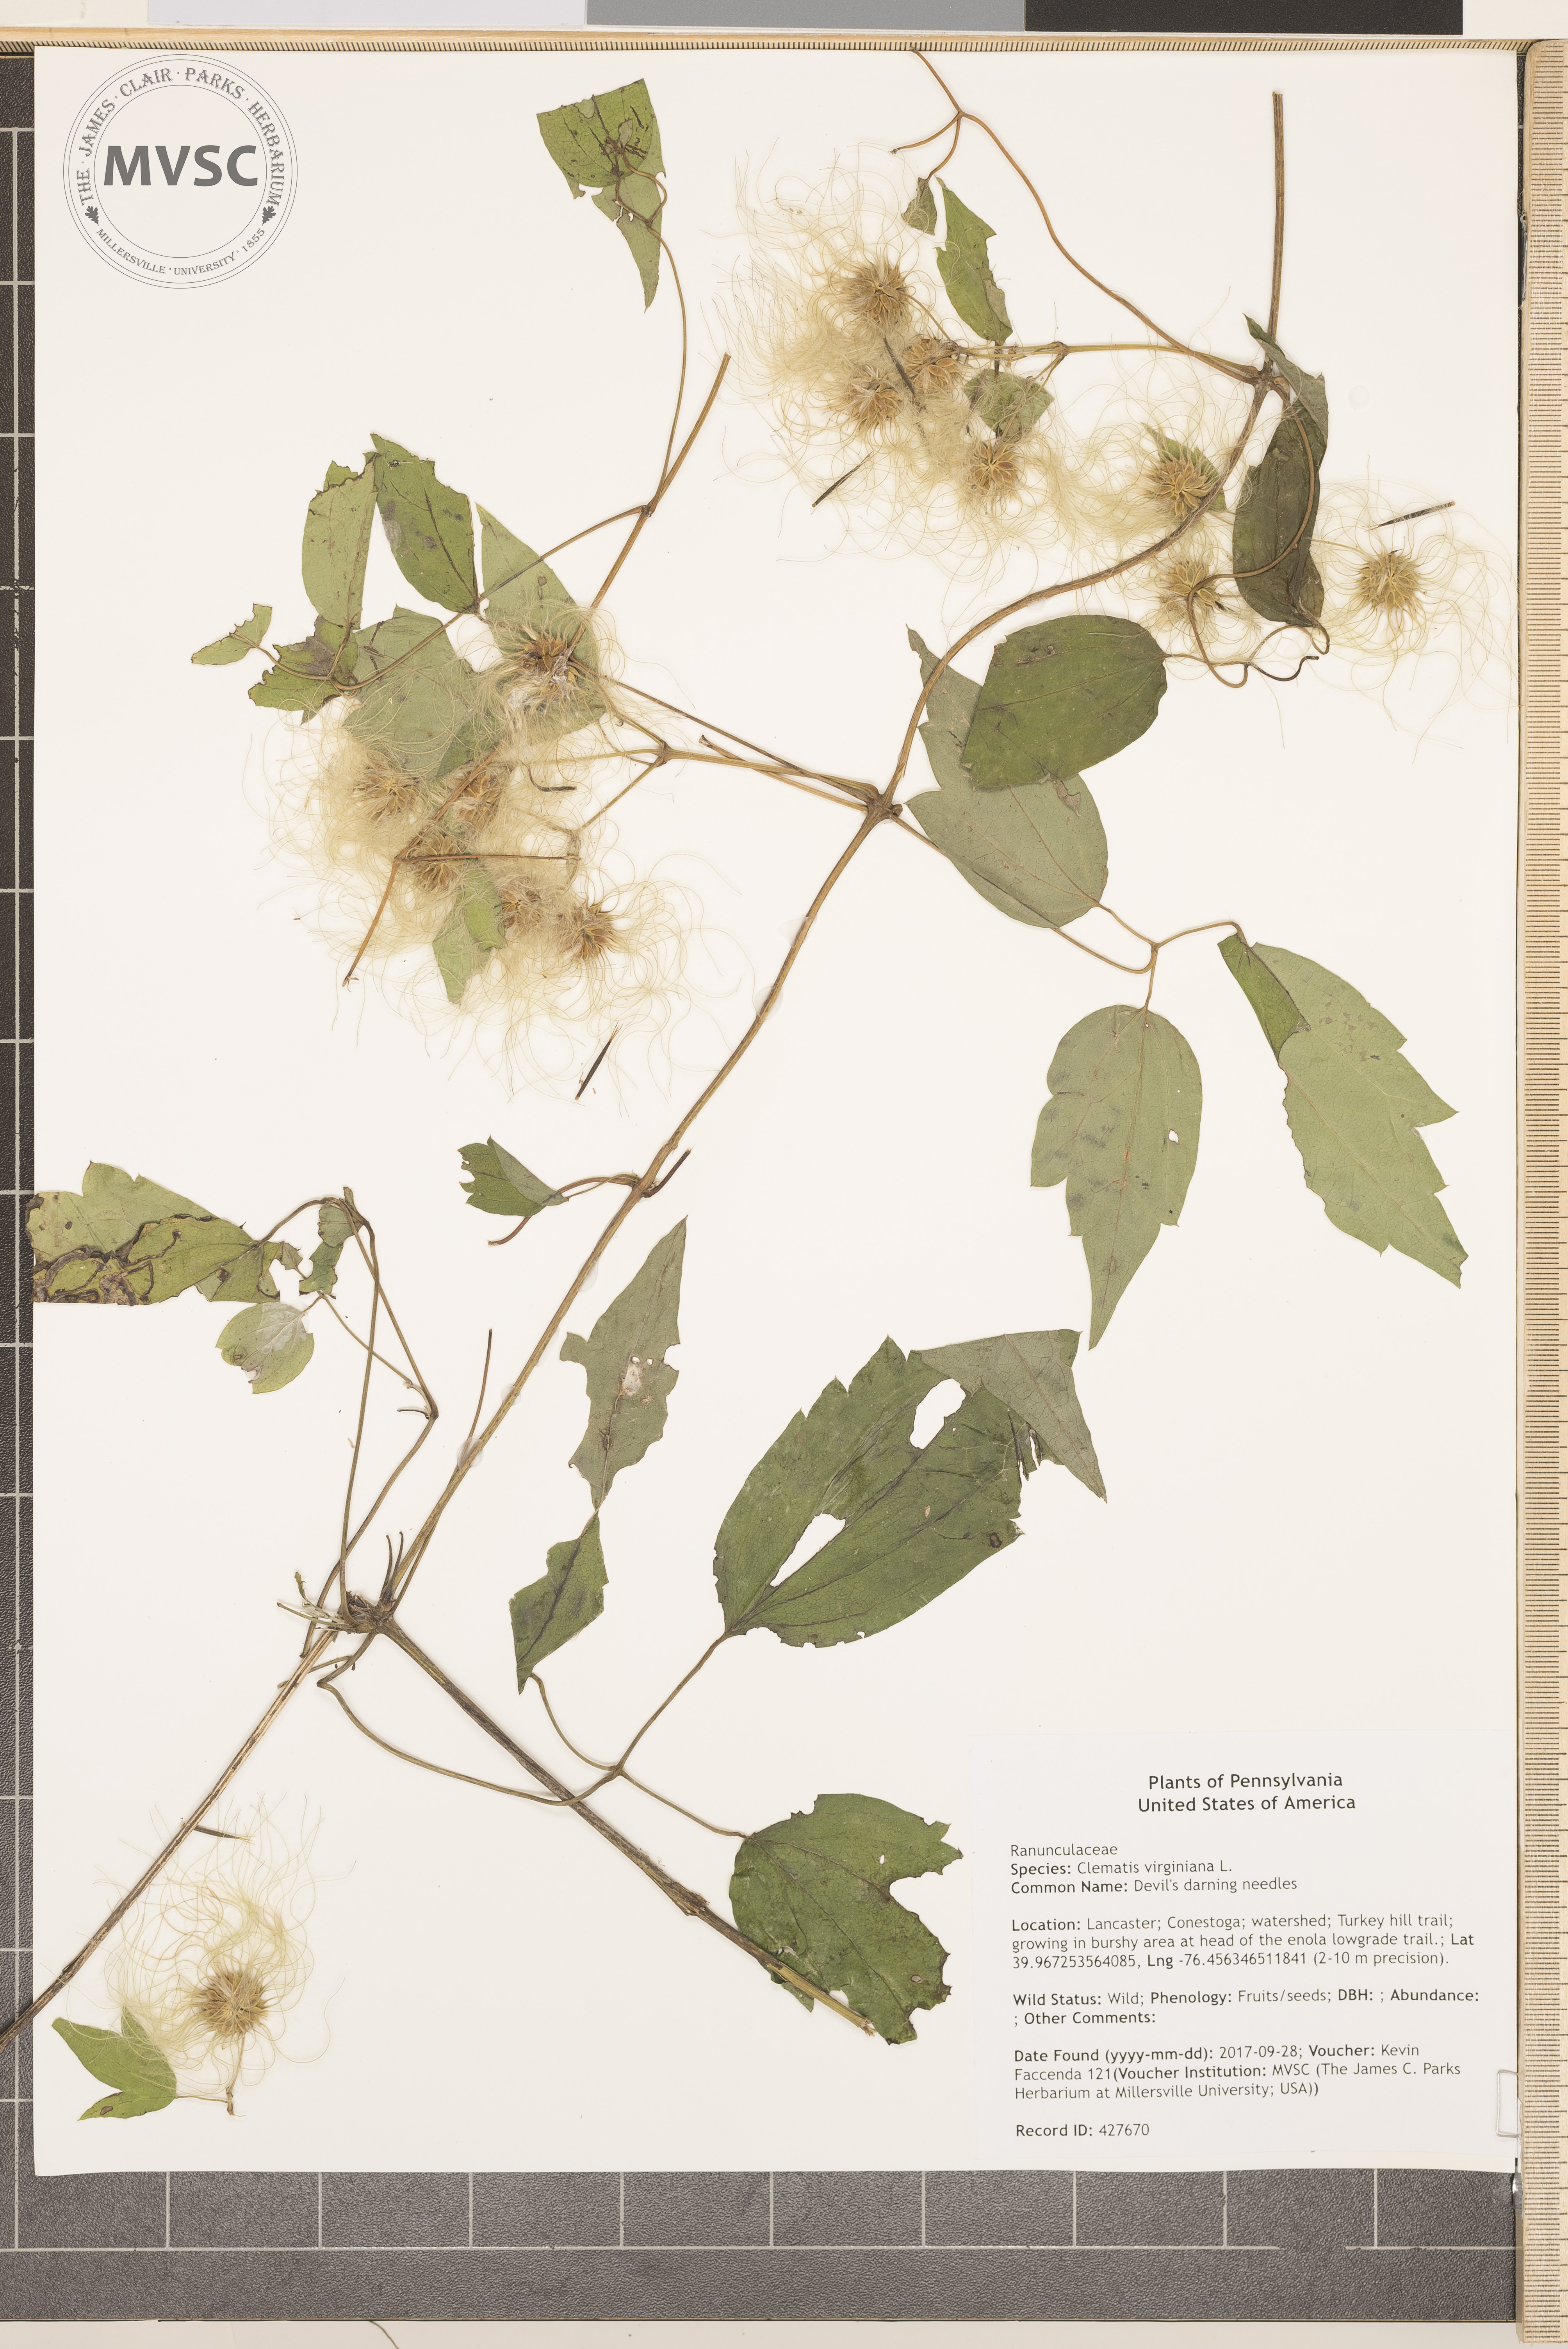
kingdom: Plantae
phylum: Tracheophyta
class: Magnoliopsida
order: Ranunculales
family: Ranunculaceae
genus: Clematis
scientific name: Clematis virginiana
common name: Devil's darning needles
